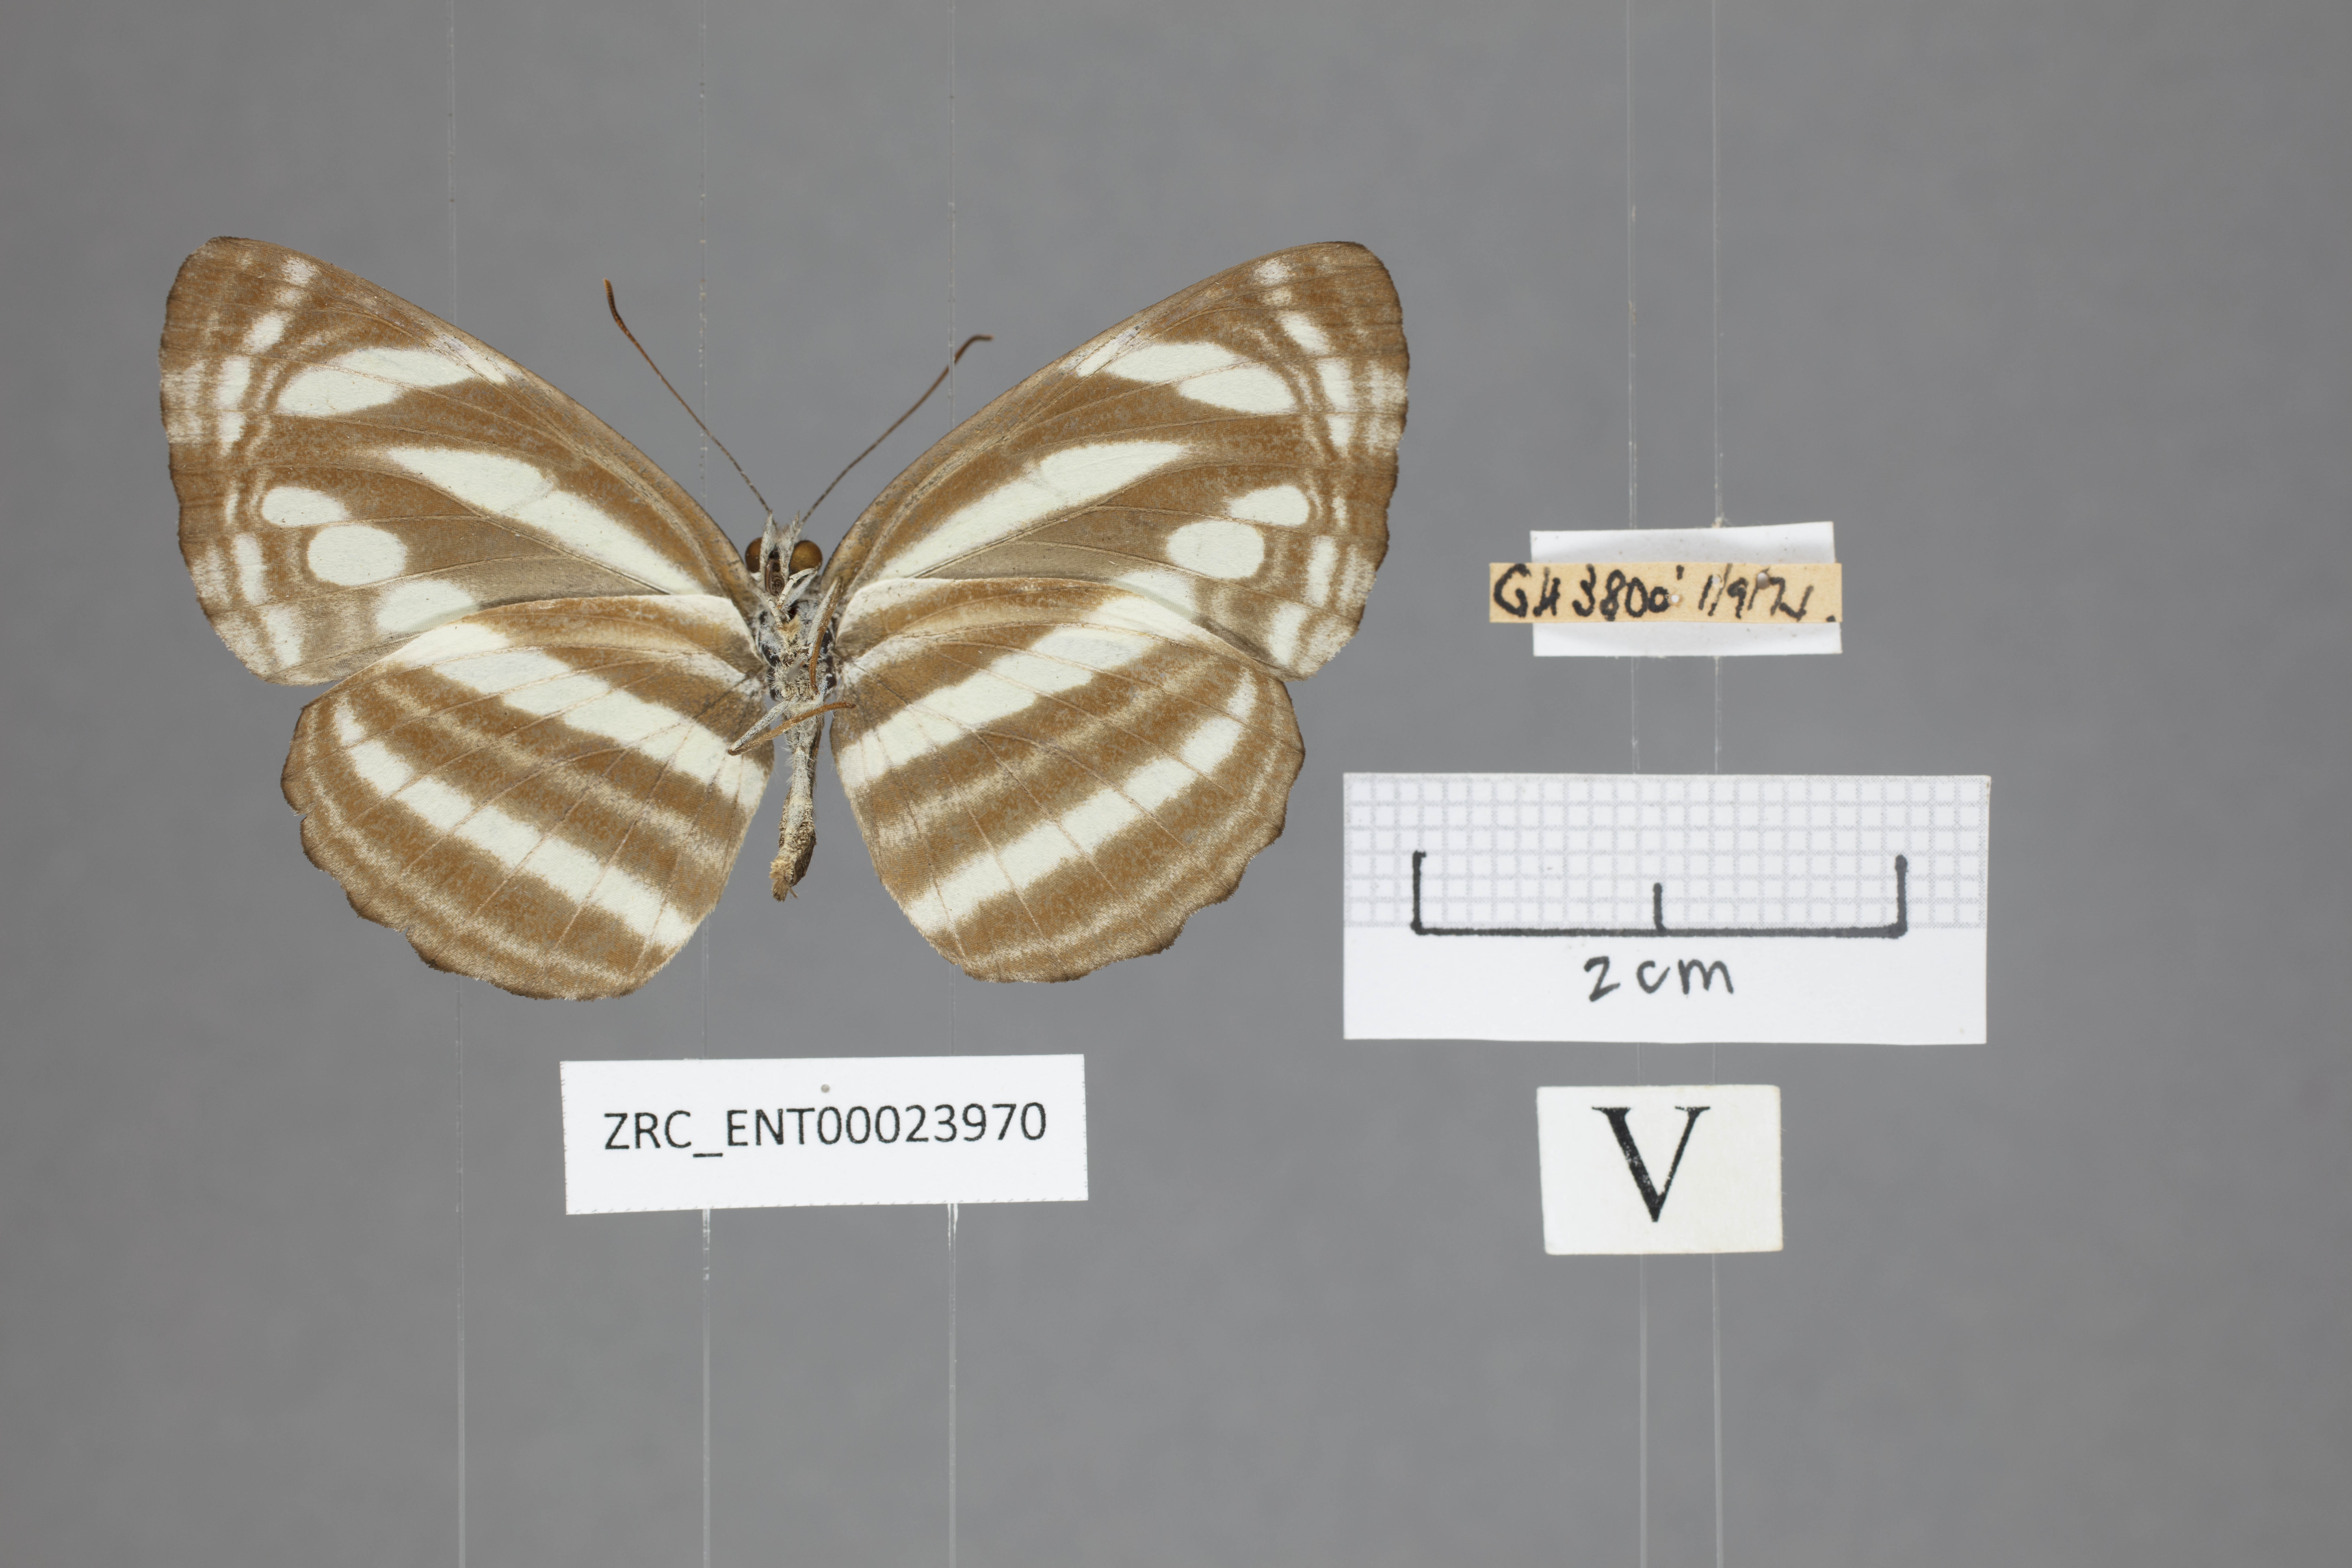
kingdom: Animalia
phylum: Arthropoda
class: Insecta
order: Lepidoptera
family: Nymphalidae
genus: Neptis
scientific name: Neptis clinioides
